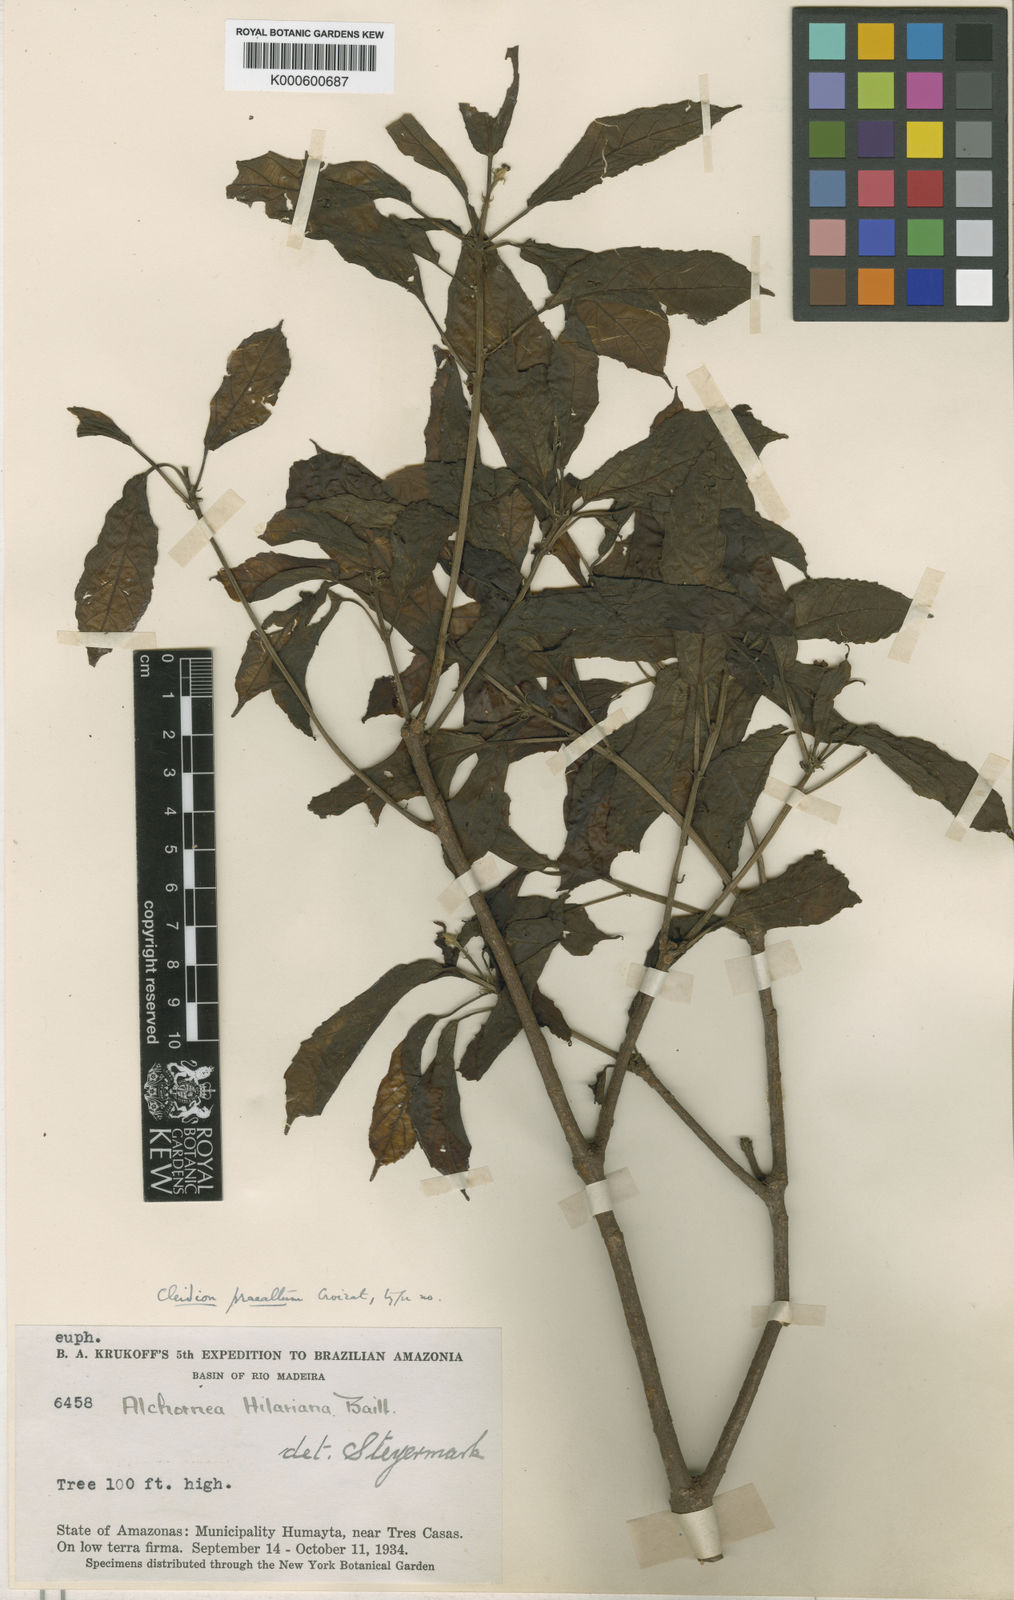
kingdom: Plantae
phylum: Tracheophyta
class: Magnoliopsida
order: Malpighiales
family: Euphorbiaceae
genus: Conceveiba
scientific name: Conceveiba
